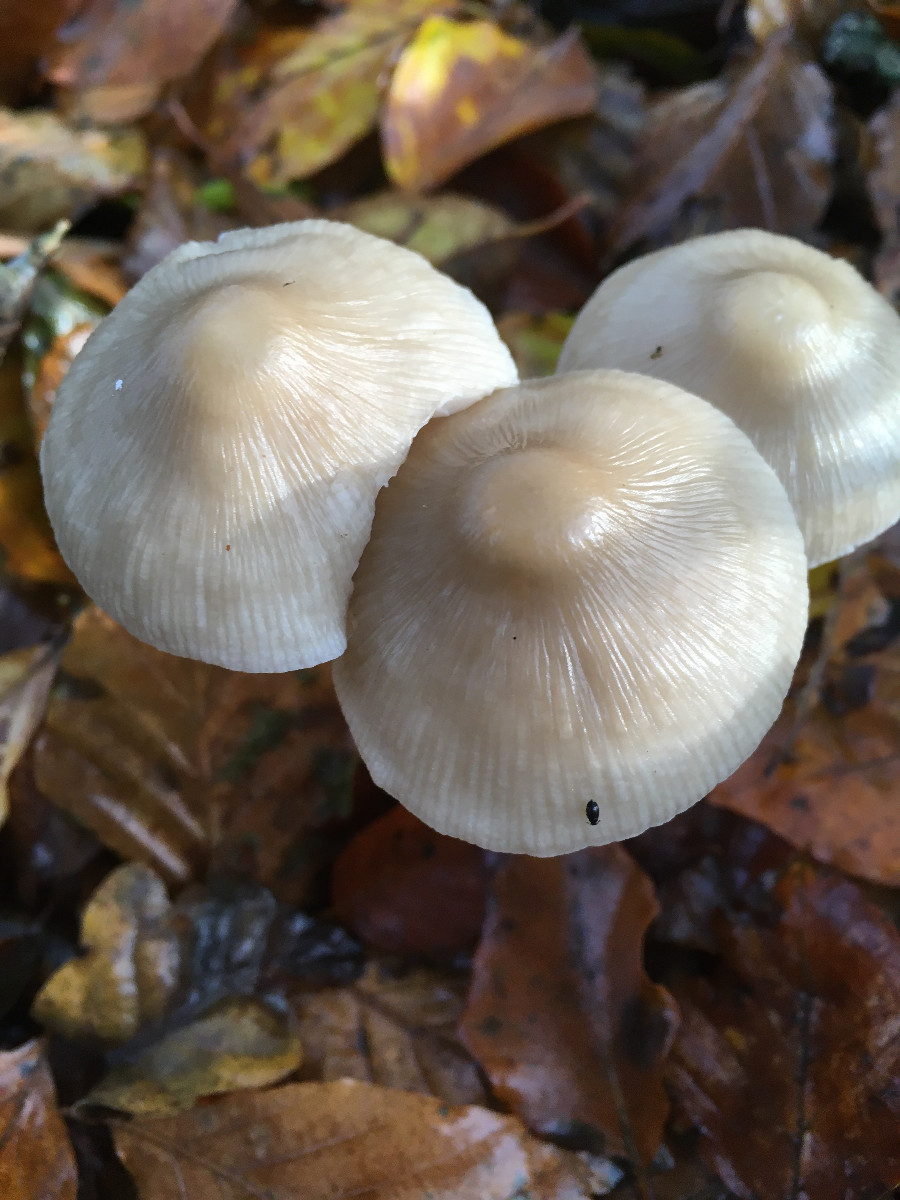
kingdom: Fungi
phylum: Basidiomycota
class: Agaricomycetes
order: Agaricales
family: Mycenaceae
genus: Mycena
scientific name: Mycena galericulata
